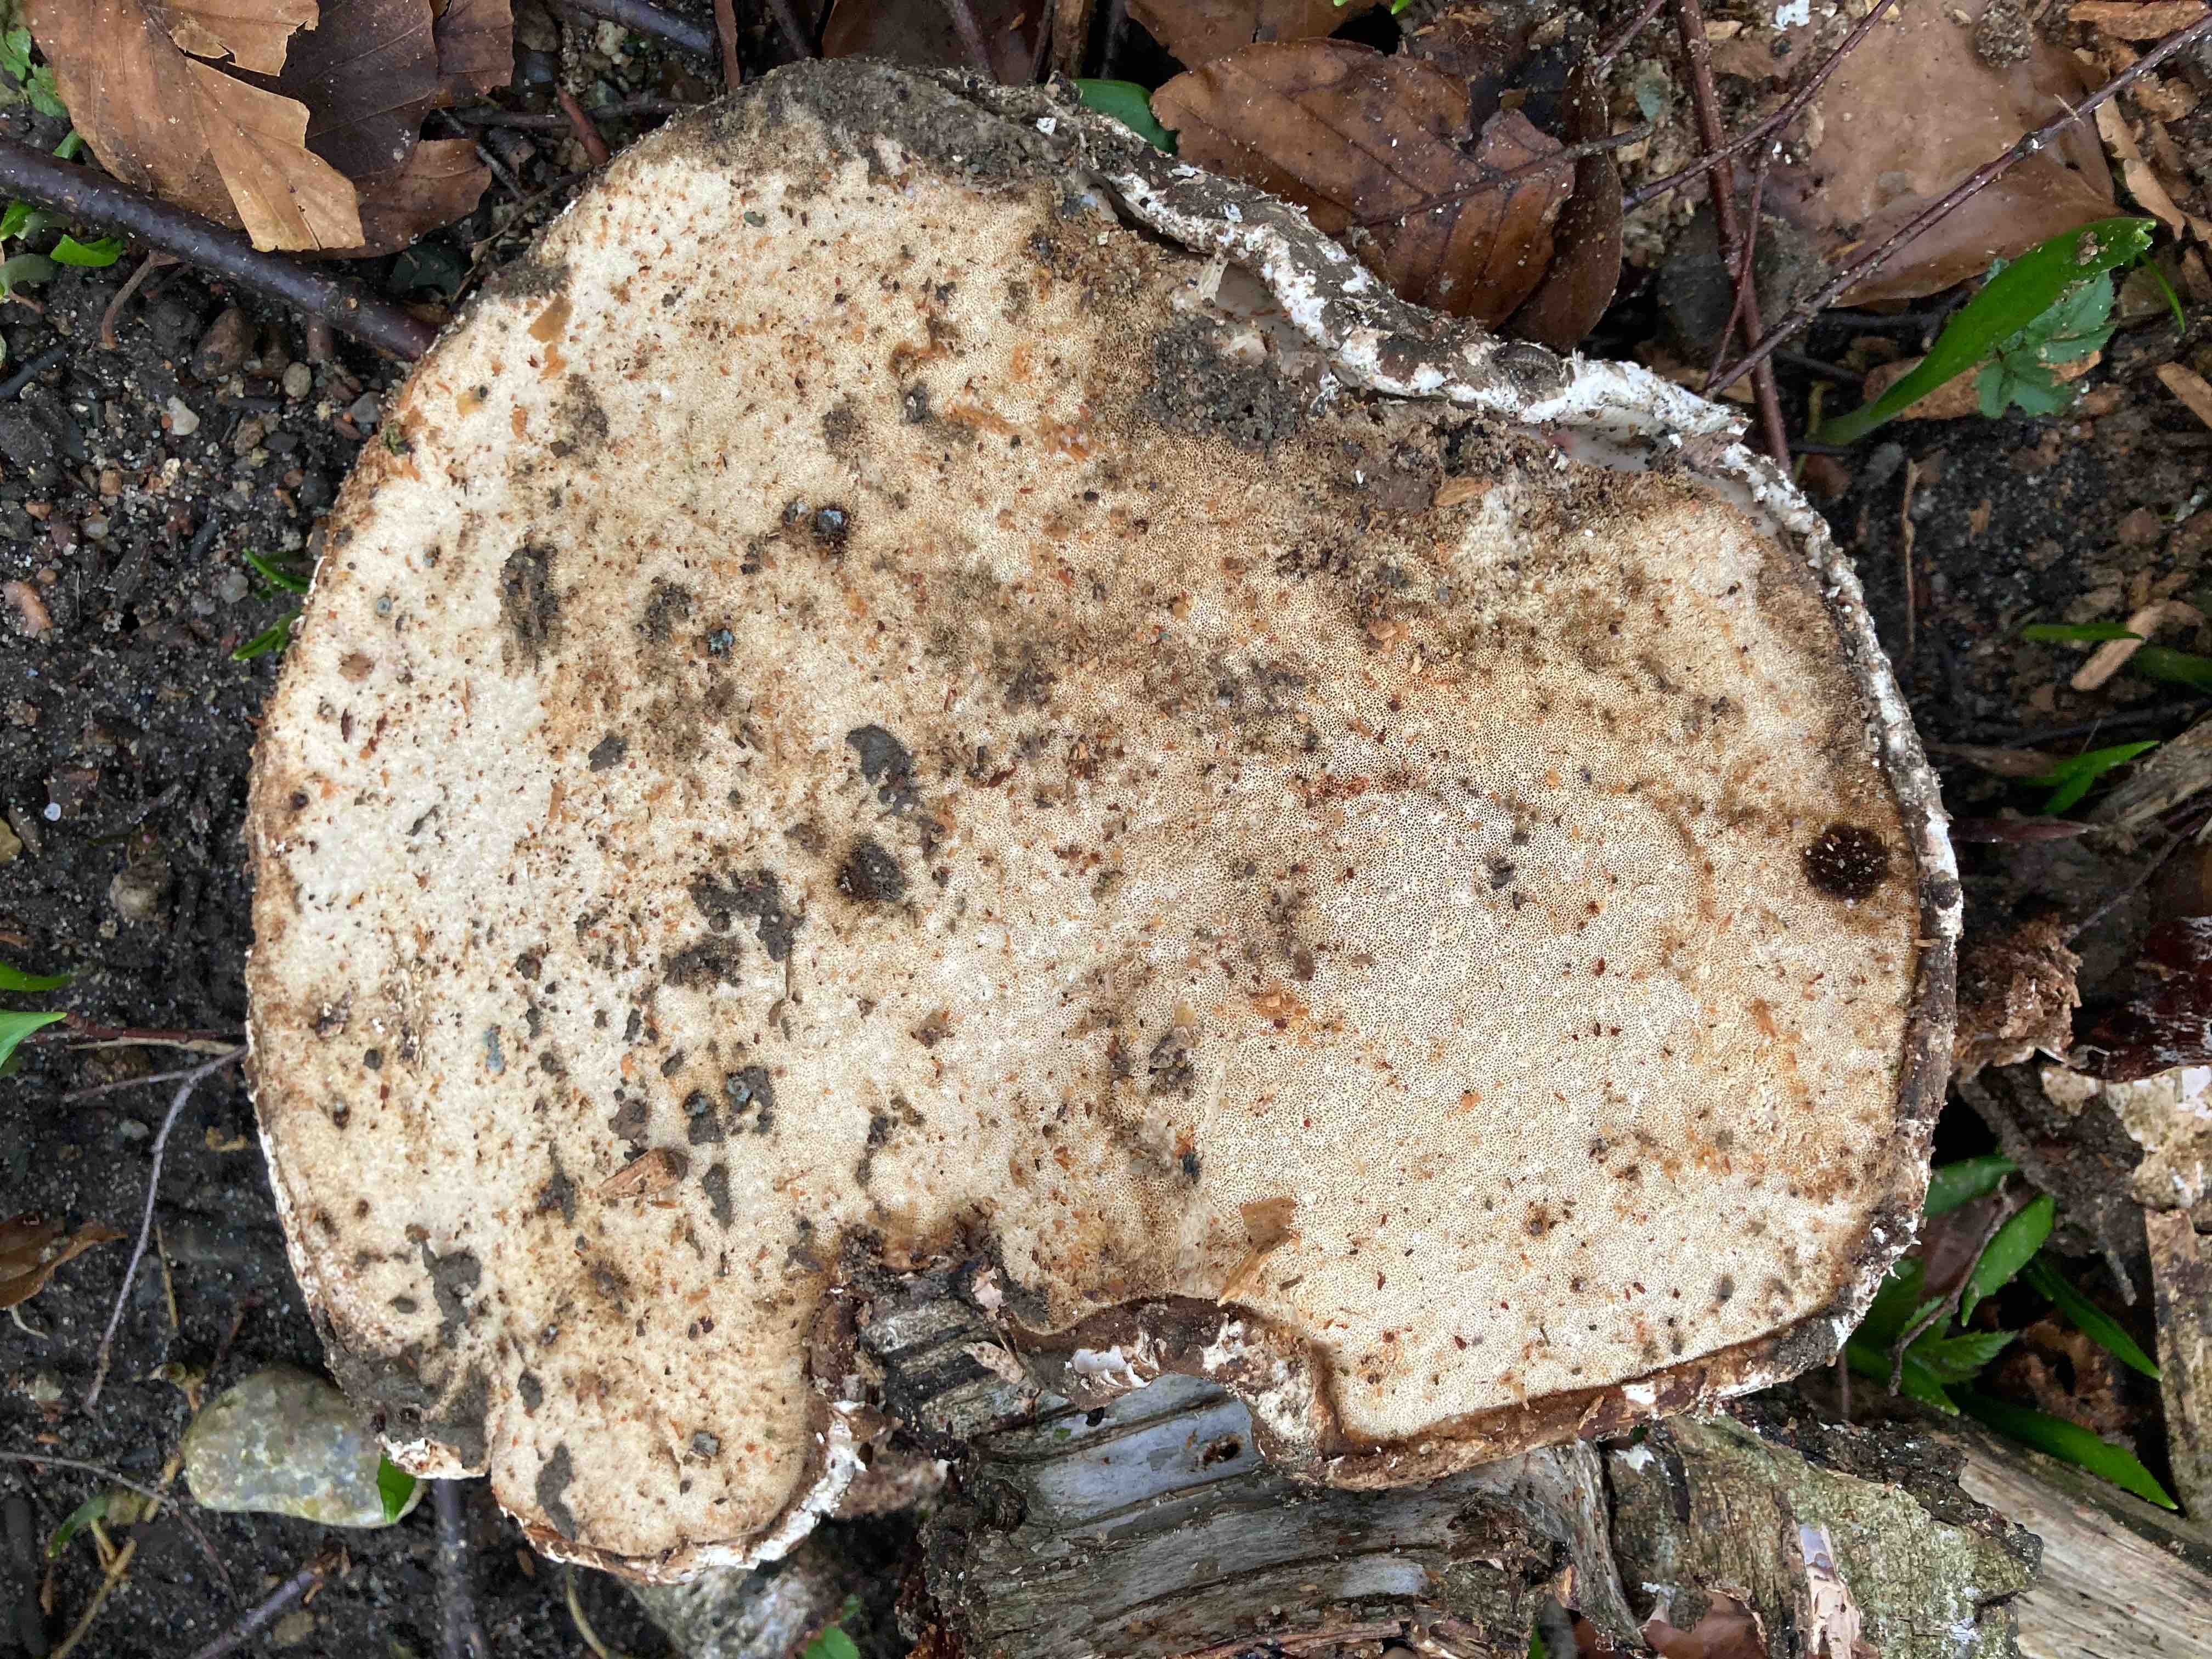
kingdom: Fungi
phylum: Basidiomycota
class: Agaricomycetes
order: Polyporales
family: Fomitopsidaceae
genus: Fomitopsis
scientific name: Fomitopsis betulina
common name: birkeporesvamp
